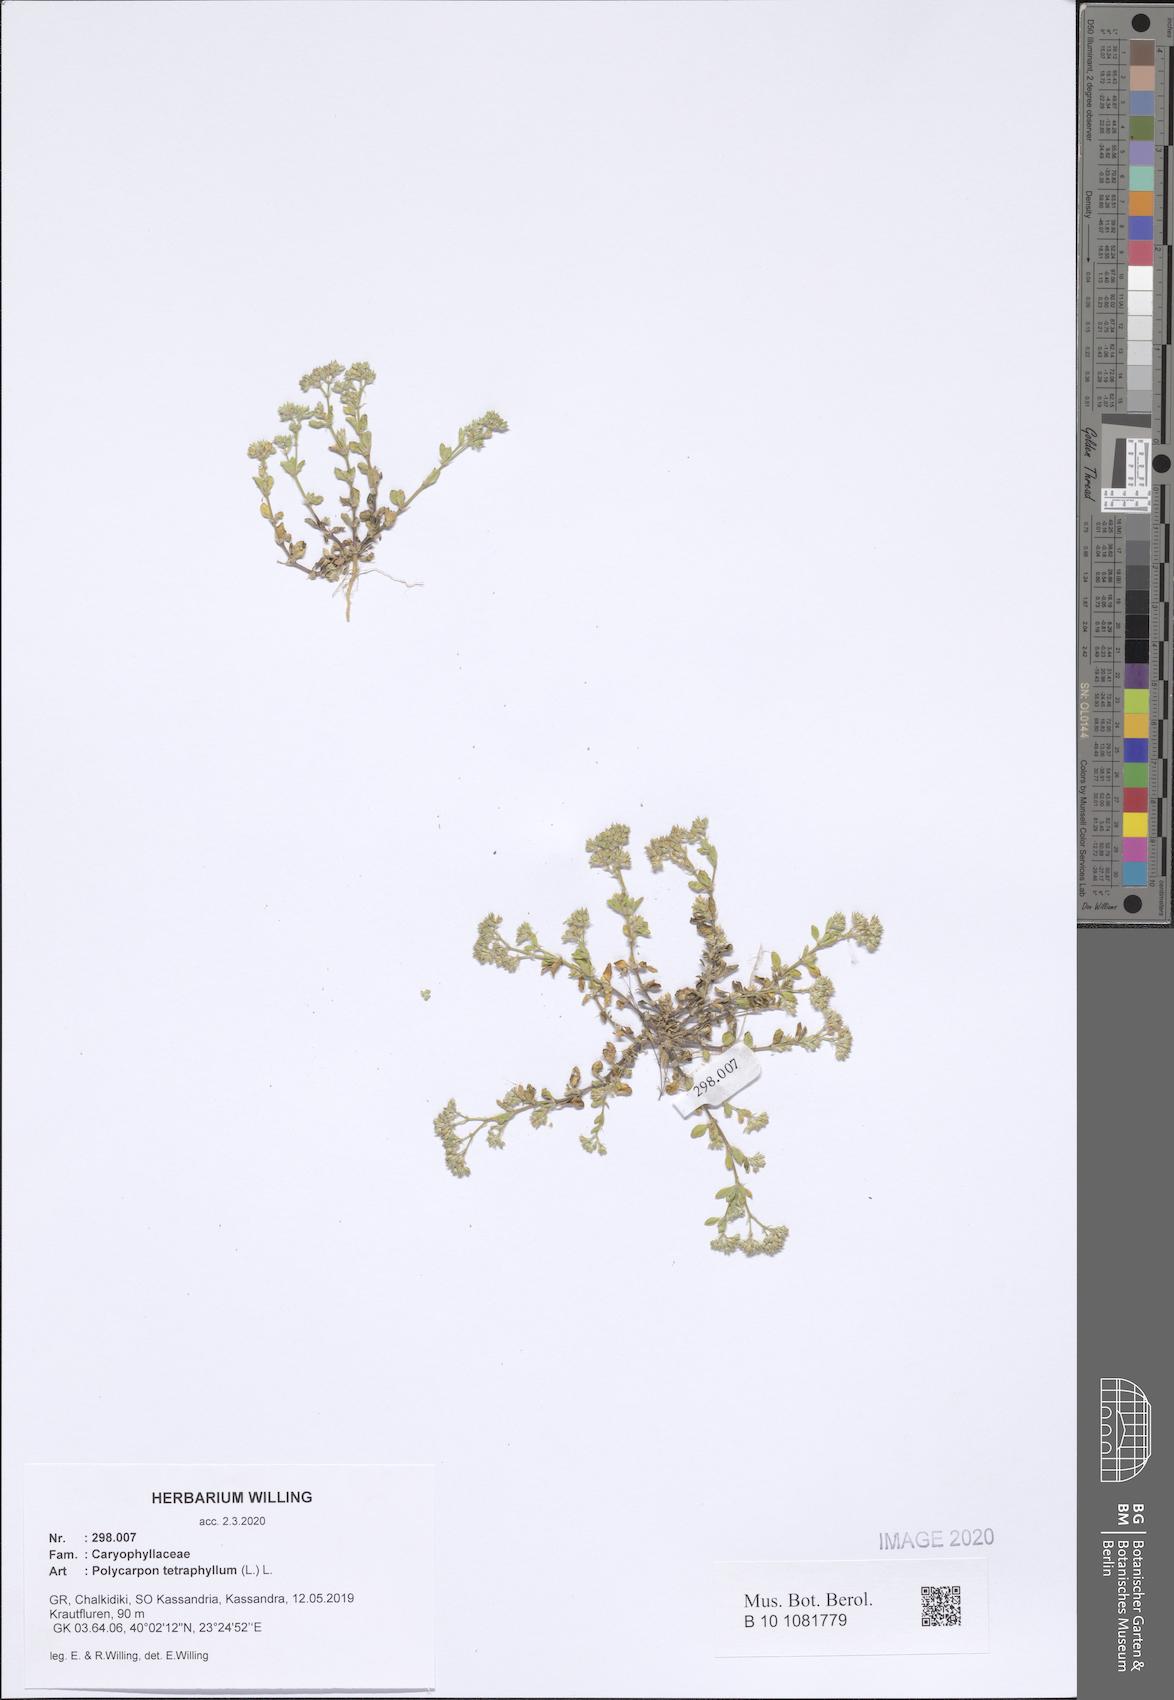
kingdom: Plantae
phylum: Tracheophyta
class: Magnoliopsida
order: Caryophyllales
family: Caryophyllaceae
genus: Polycarpon
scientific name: Polycarpon tetraphyllum
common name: Four-leaved all-seed
